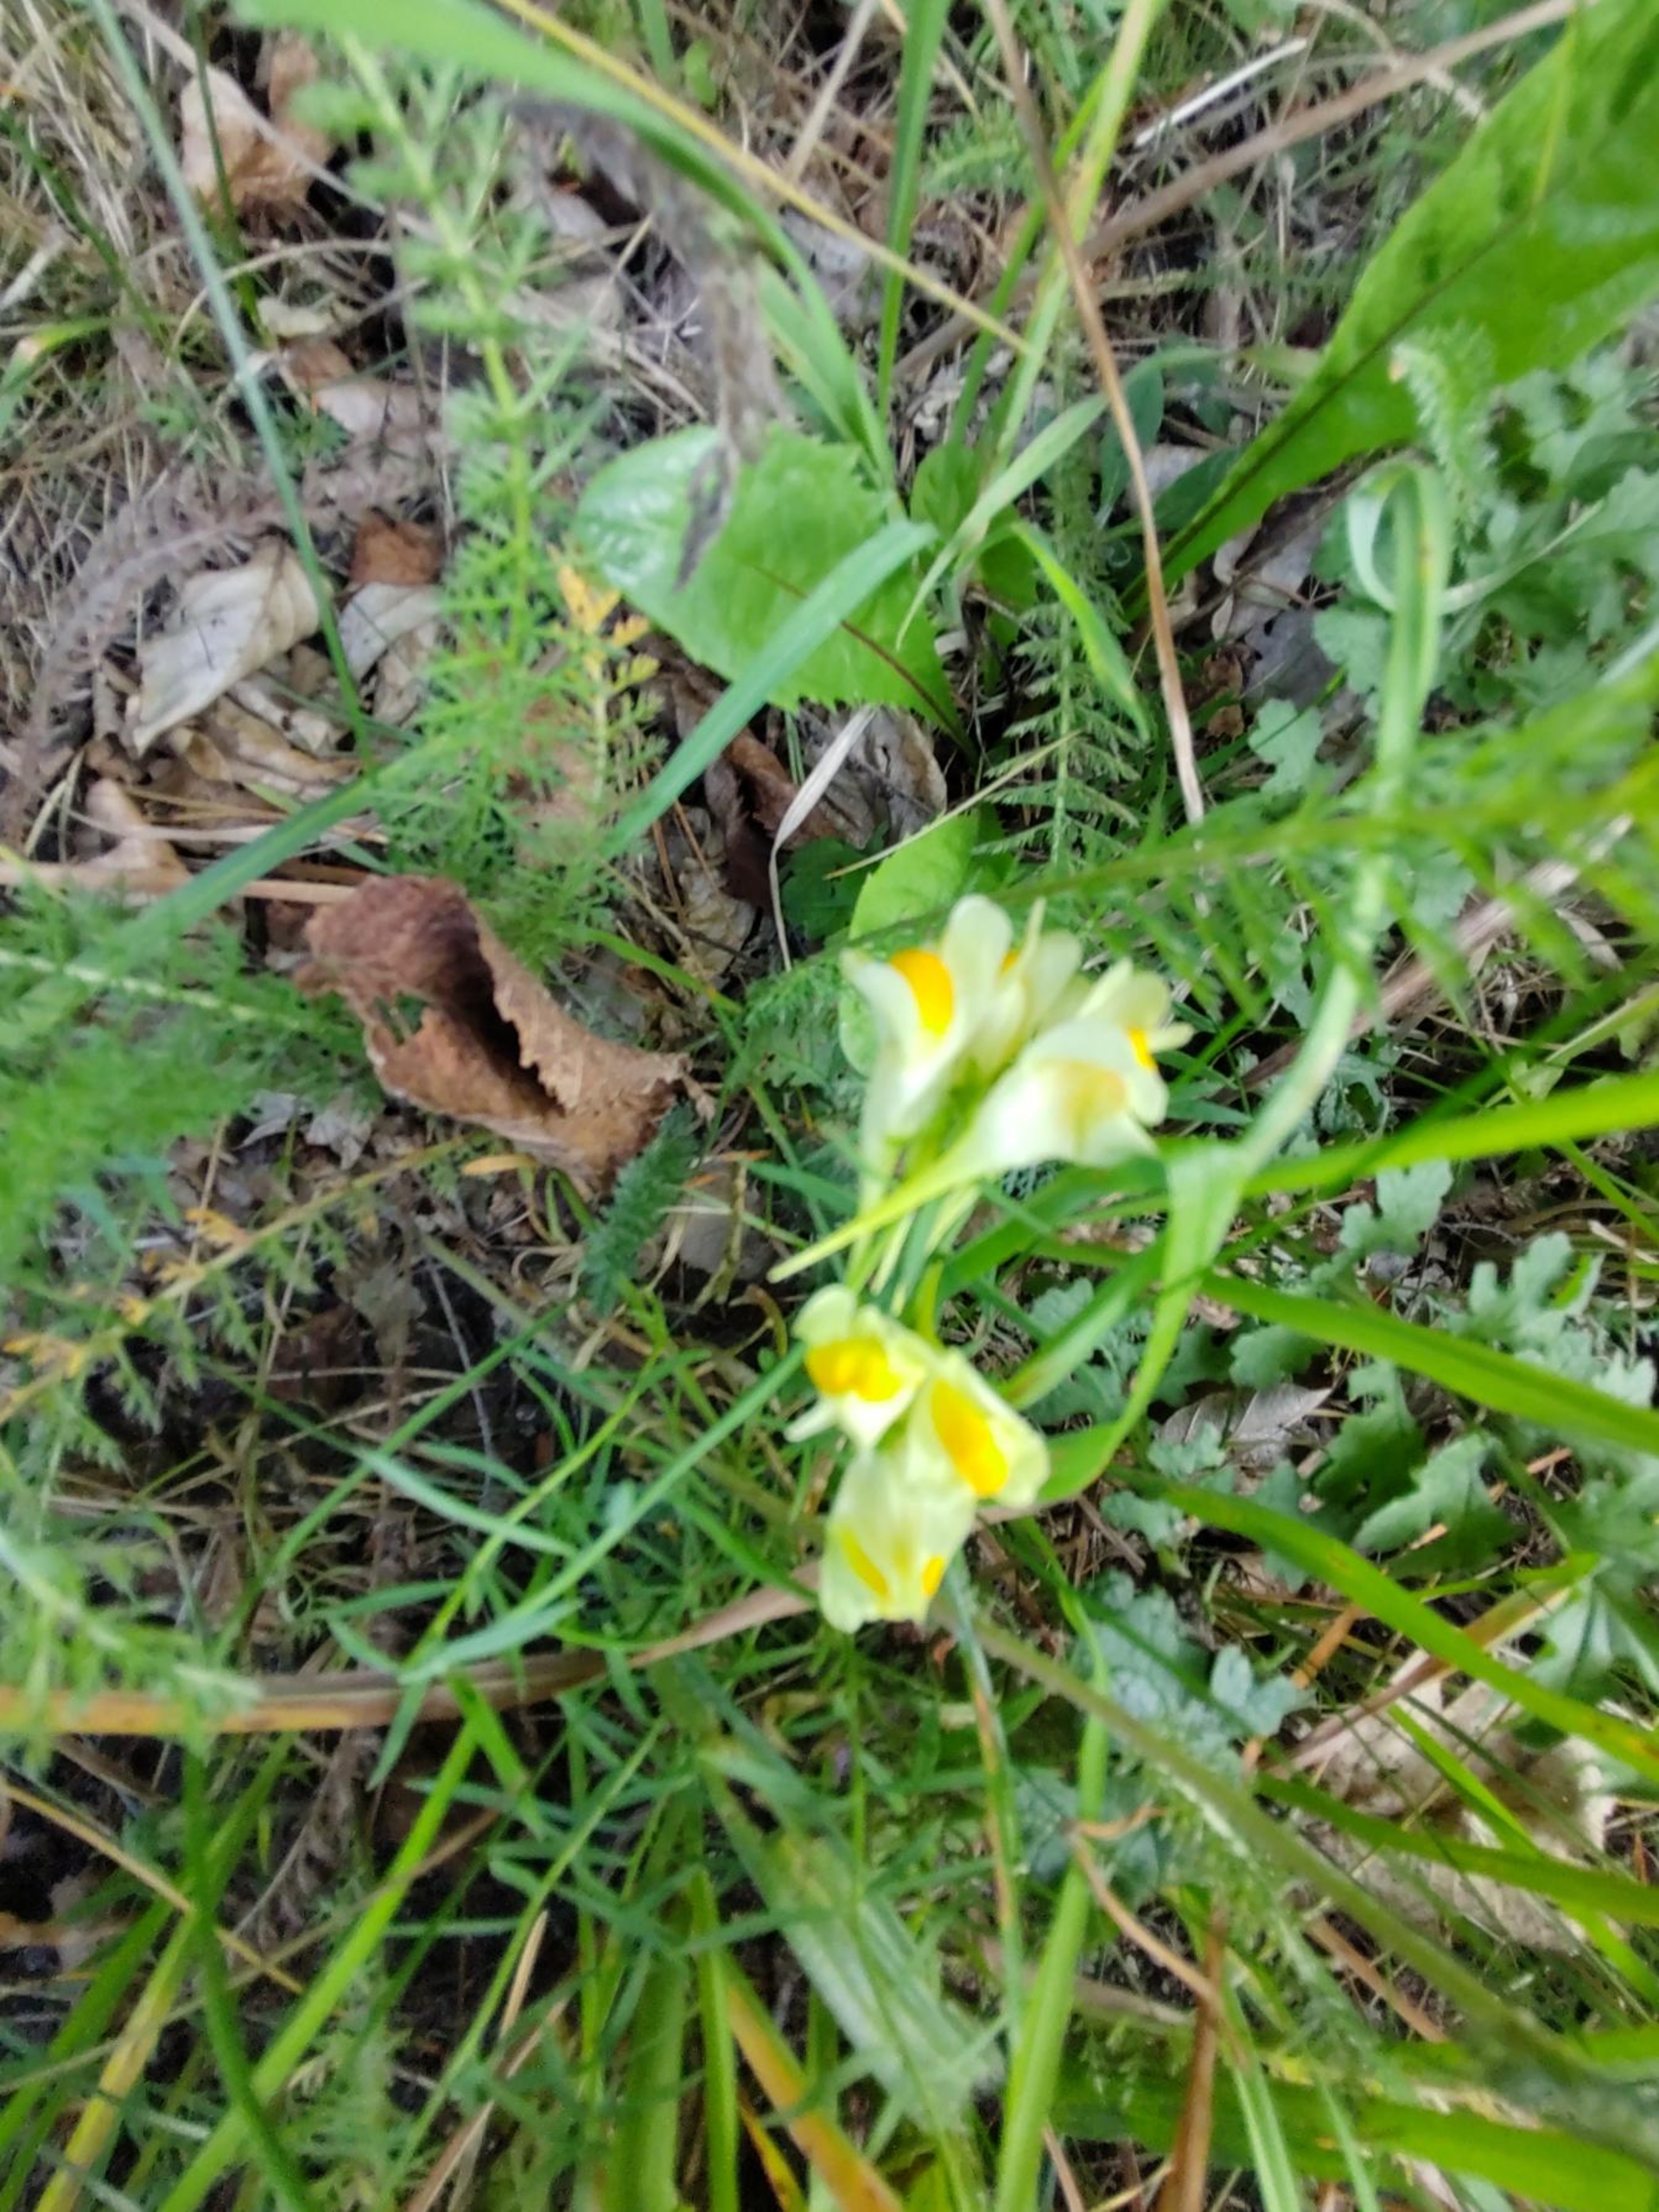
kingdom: Plantae
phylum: Tracheophyta
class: Magnoliopsida
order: Lamiales
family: Plantaginaceae
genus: Linaria
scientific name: Linaria vulgaris
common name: Almindelig torskemund
